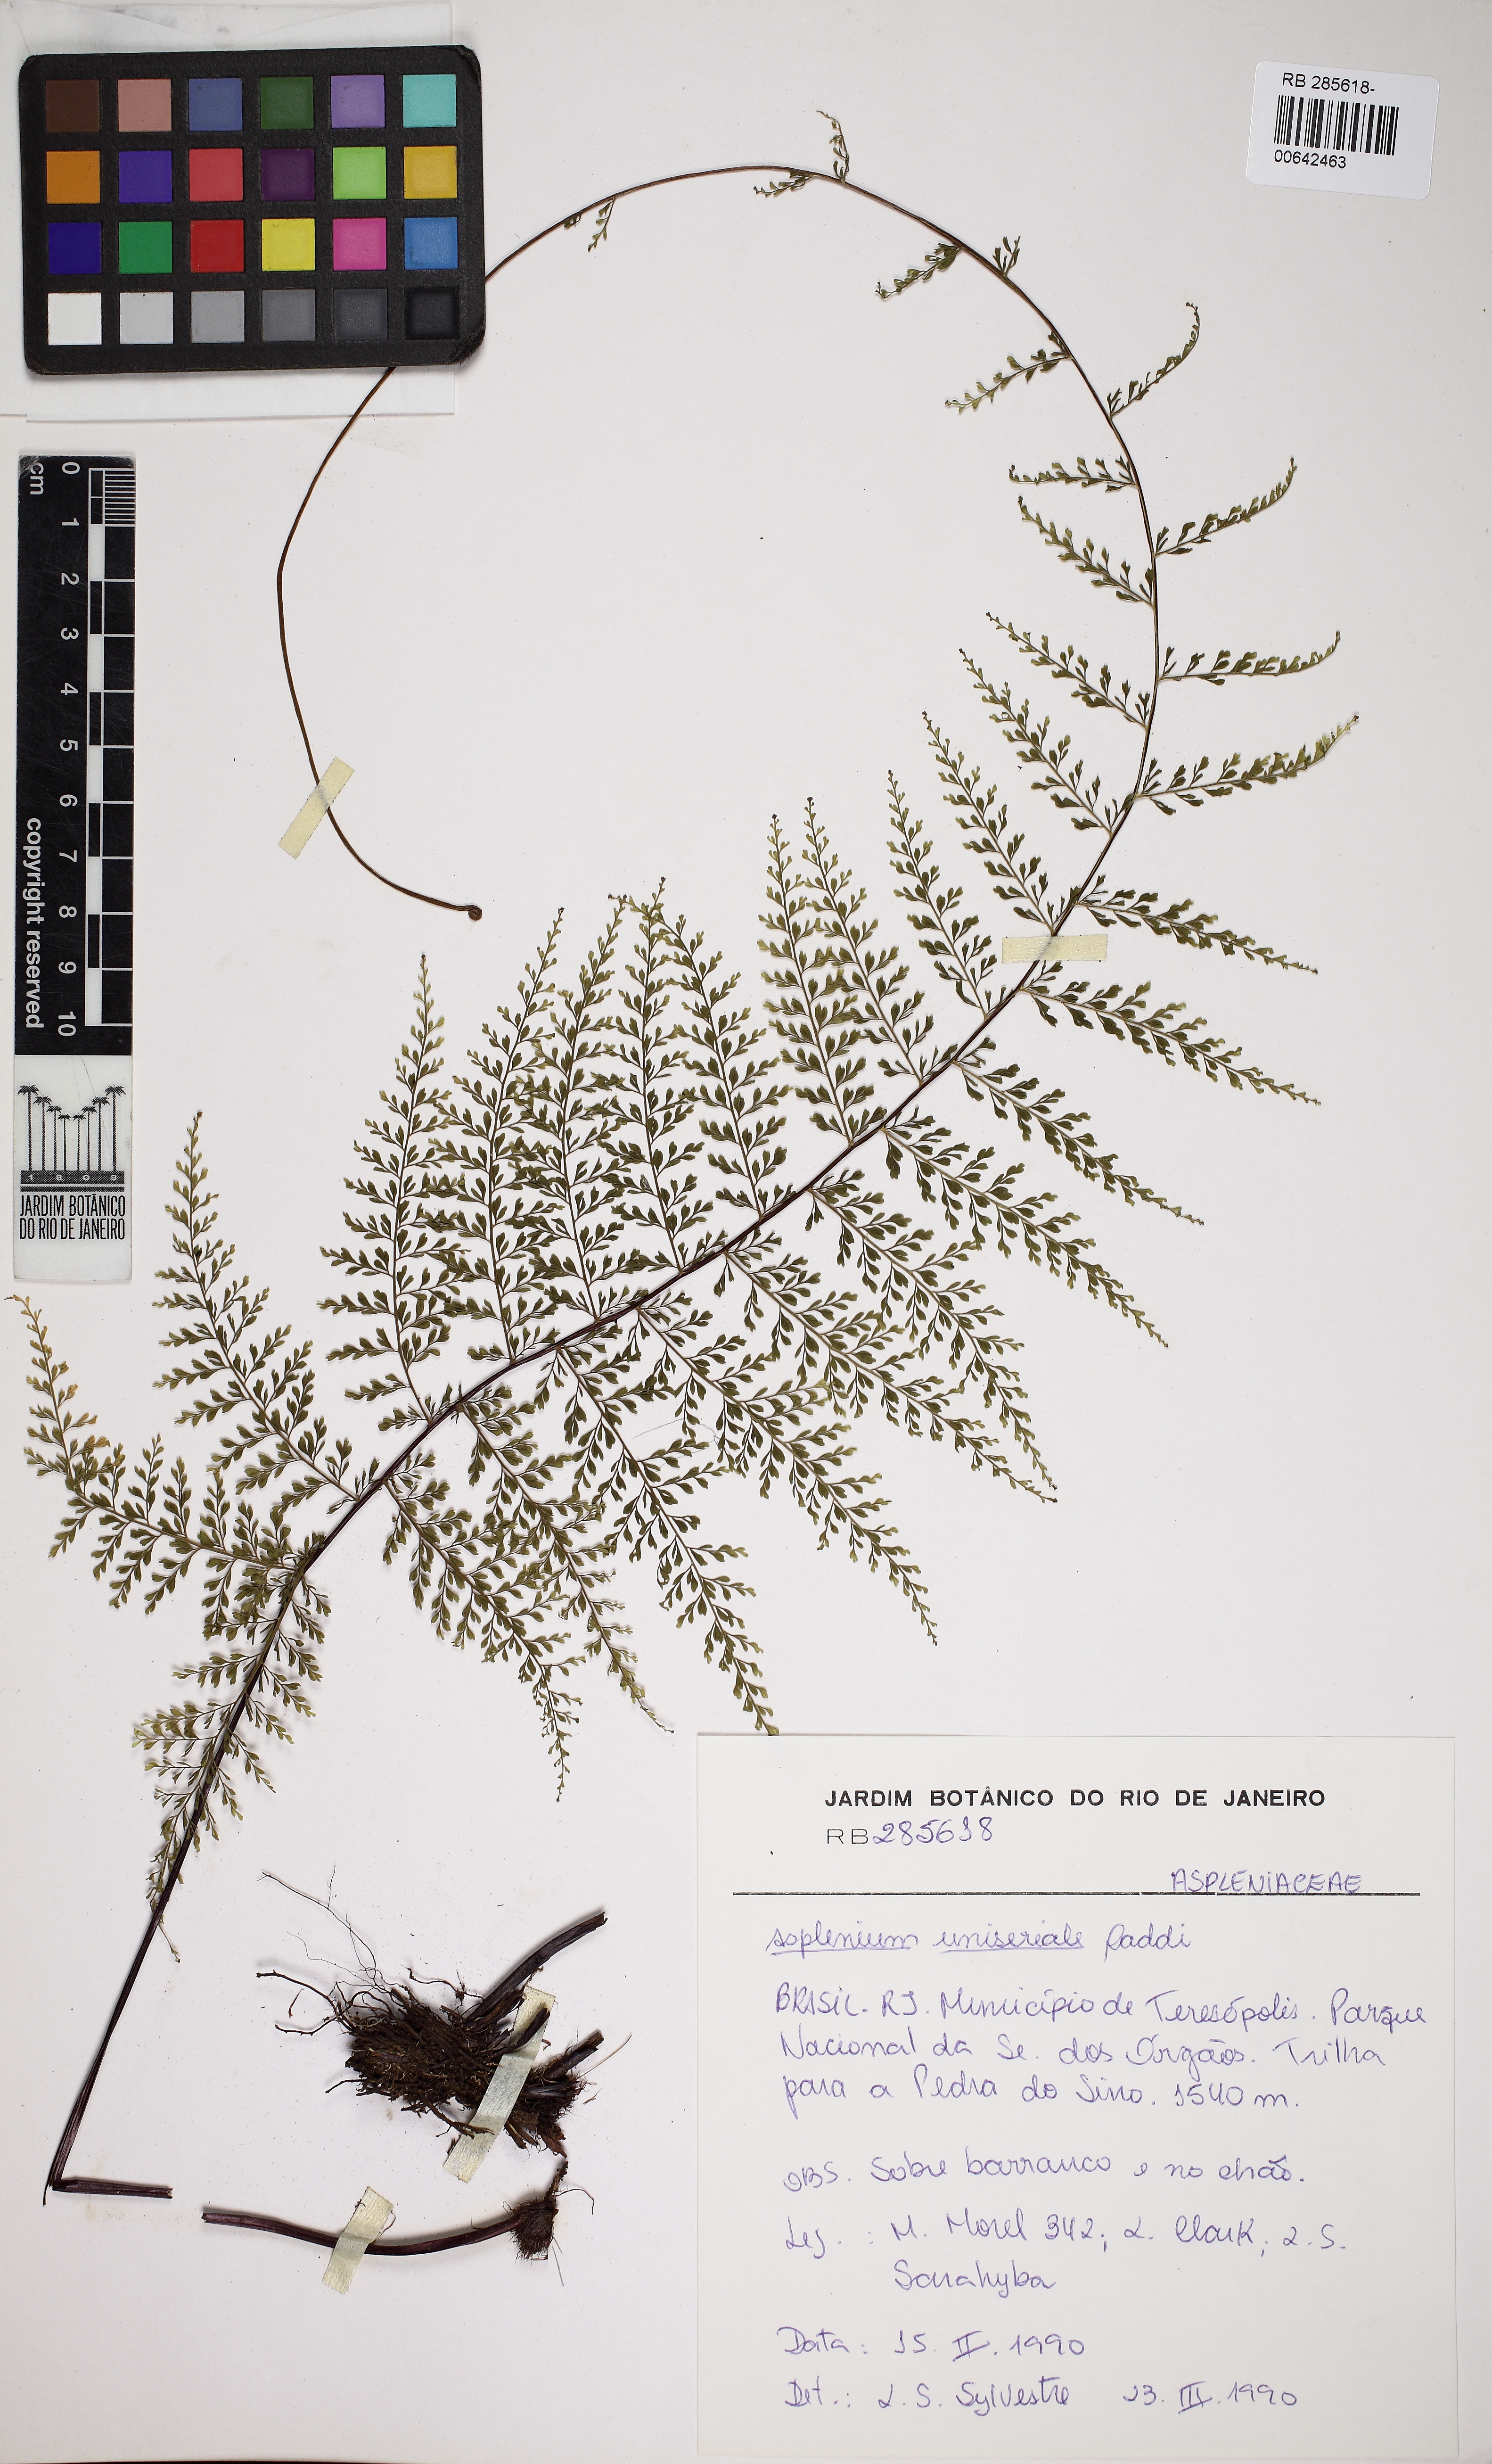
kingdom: Plantae
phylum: Tracheophyta
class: Polypodiopsida
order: Polypodiales
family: Aspleniaceae
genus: Asplenium
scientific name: Asplenium uniseriale
